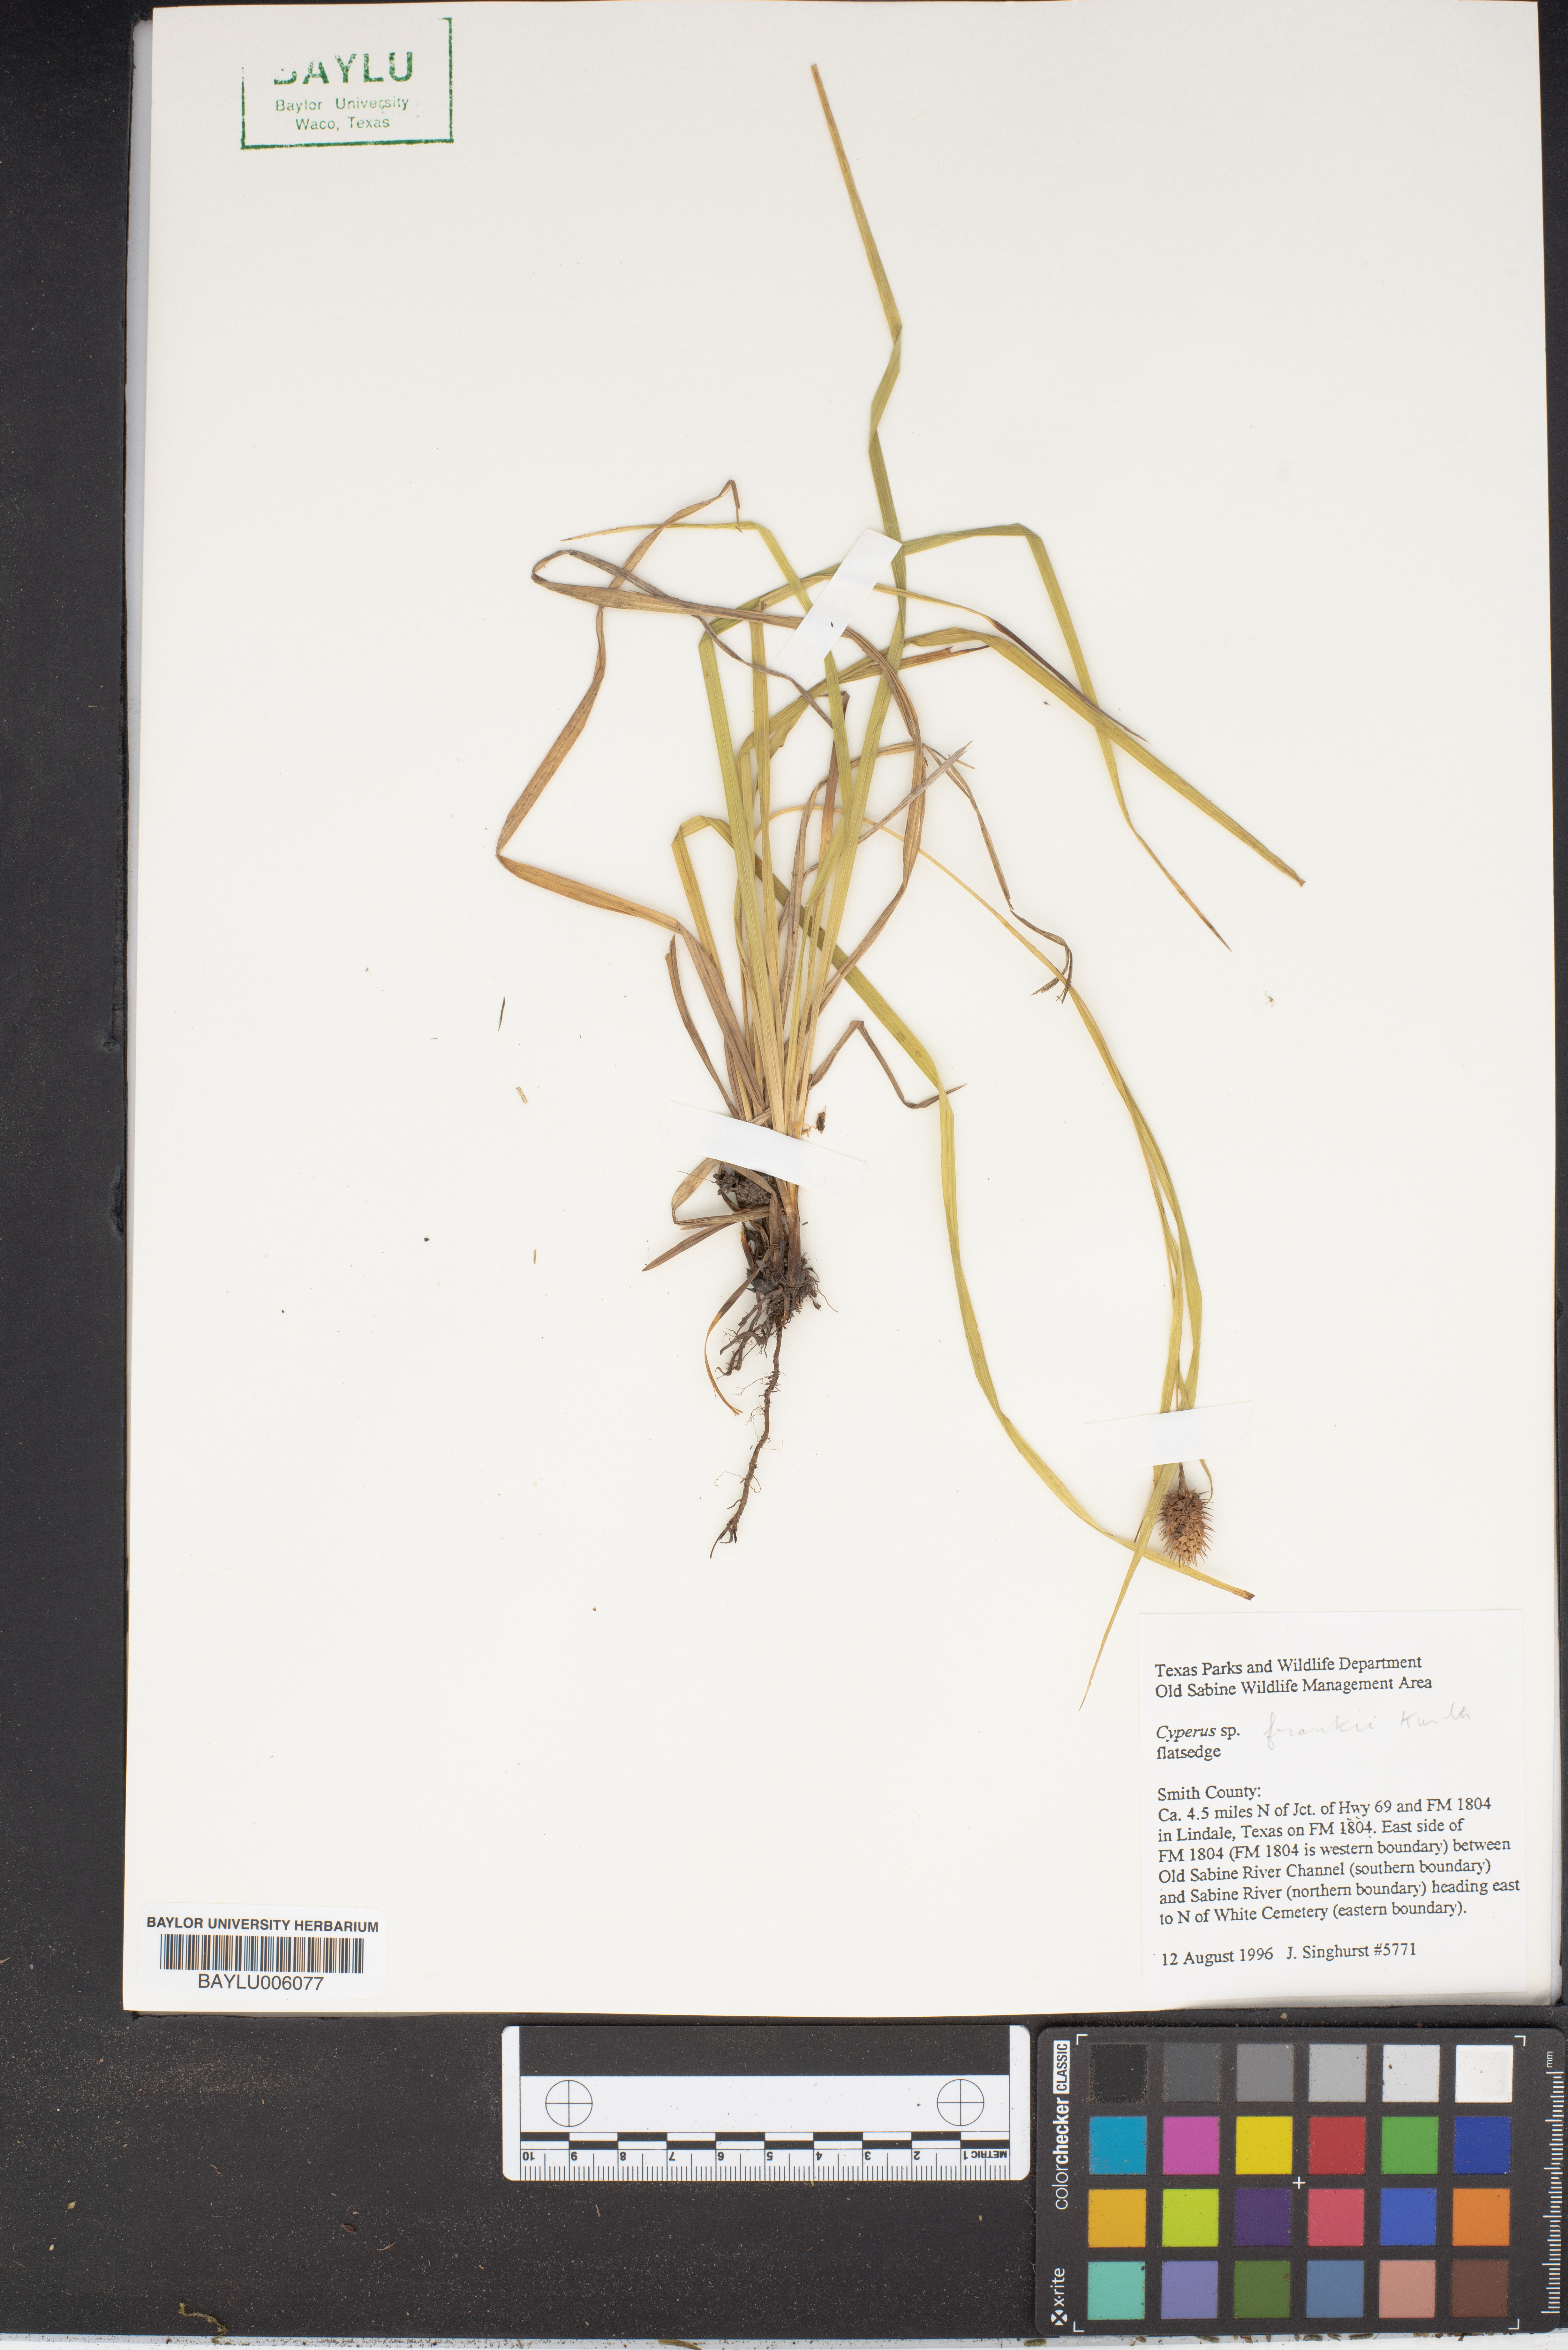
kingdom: Plantae
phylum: Tracheophyta
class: Liliopsida
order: Poales
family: Cyperaceae
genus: Cyperus
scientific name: Cyperus
